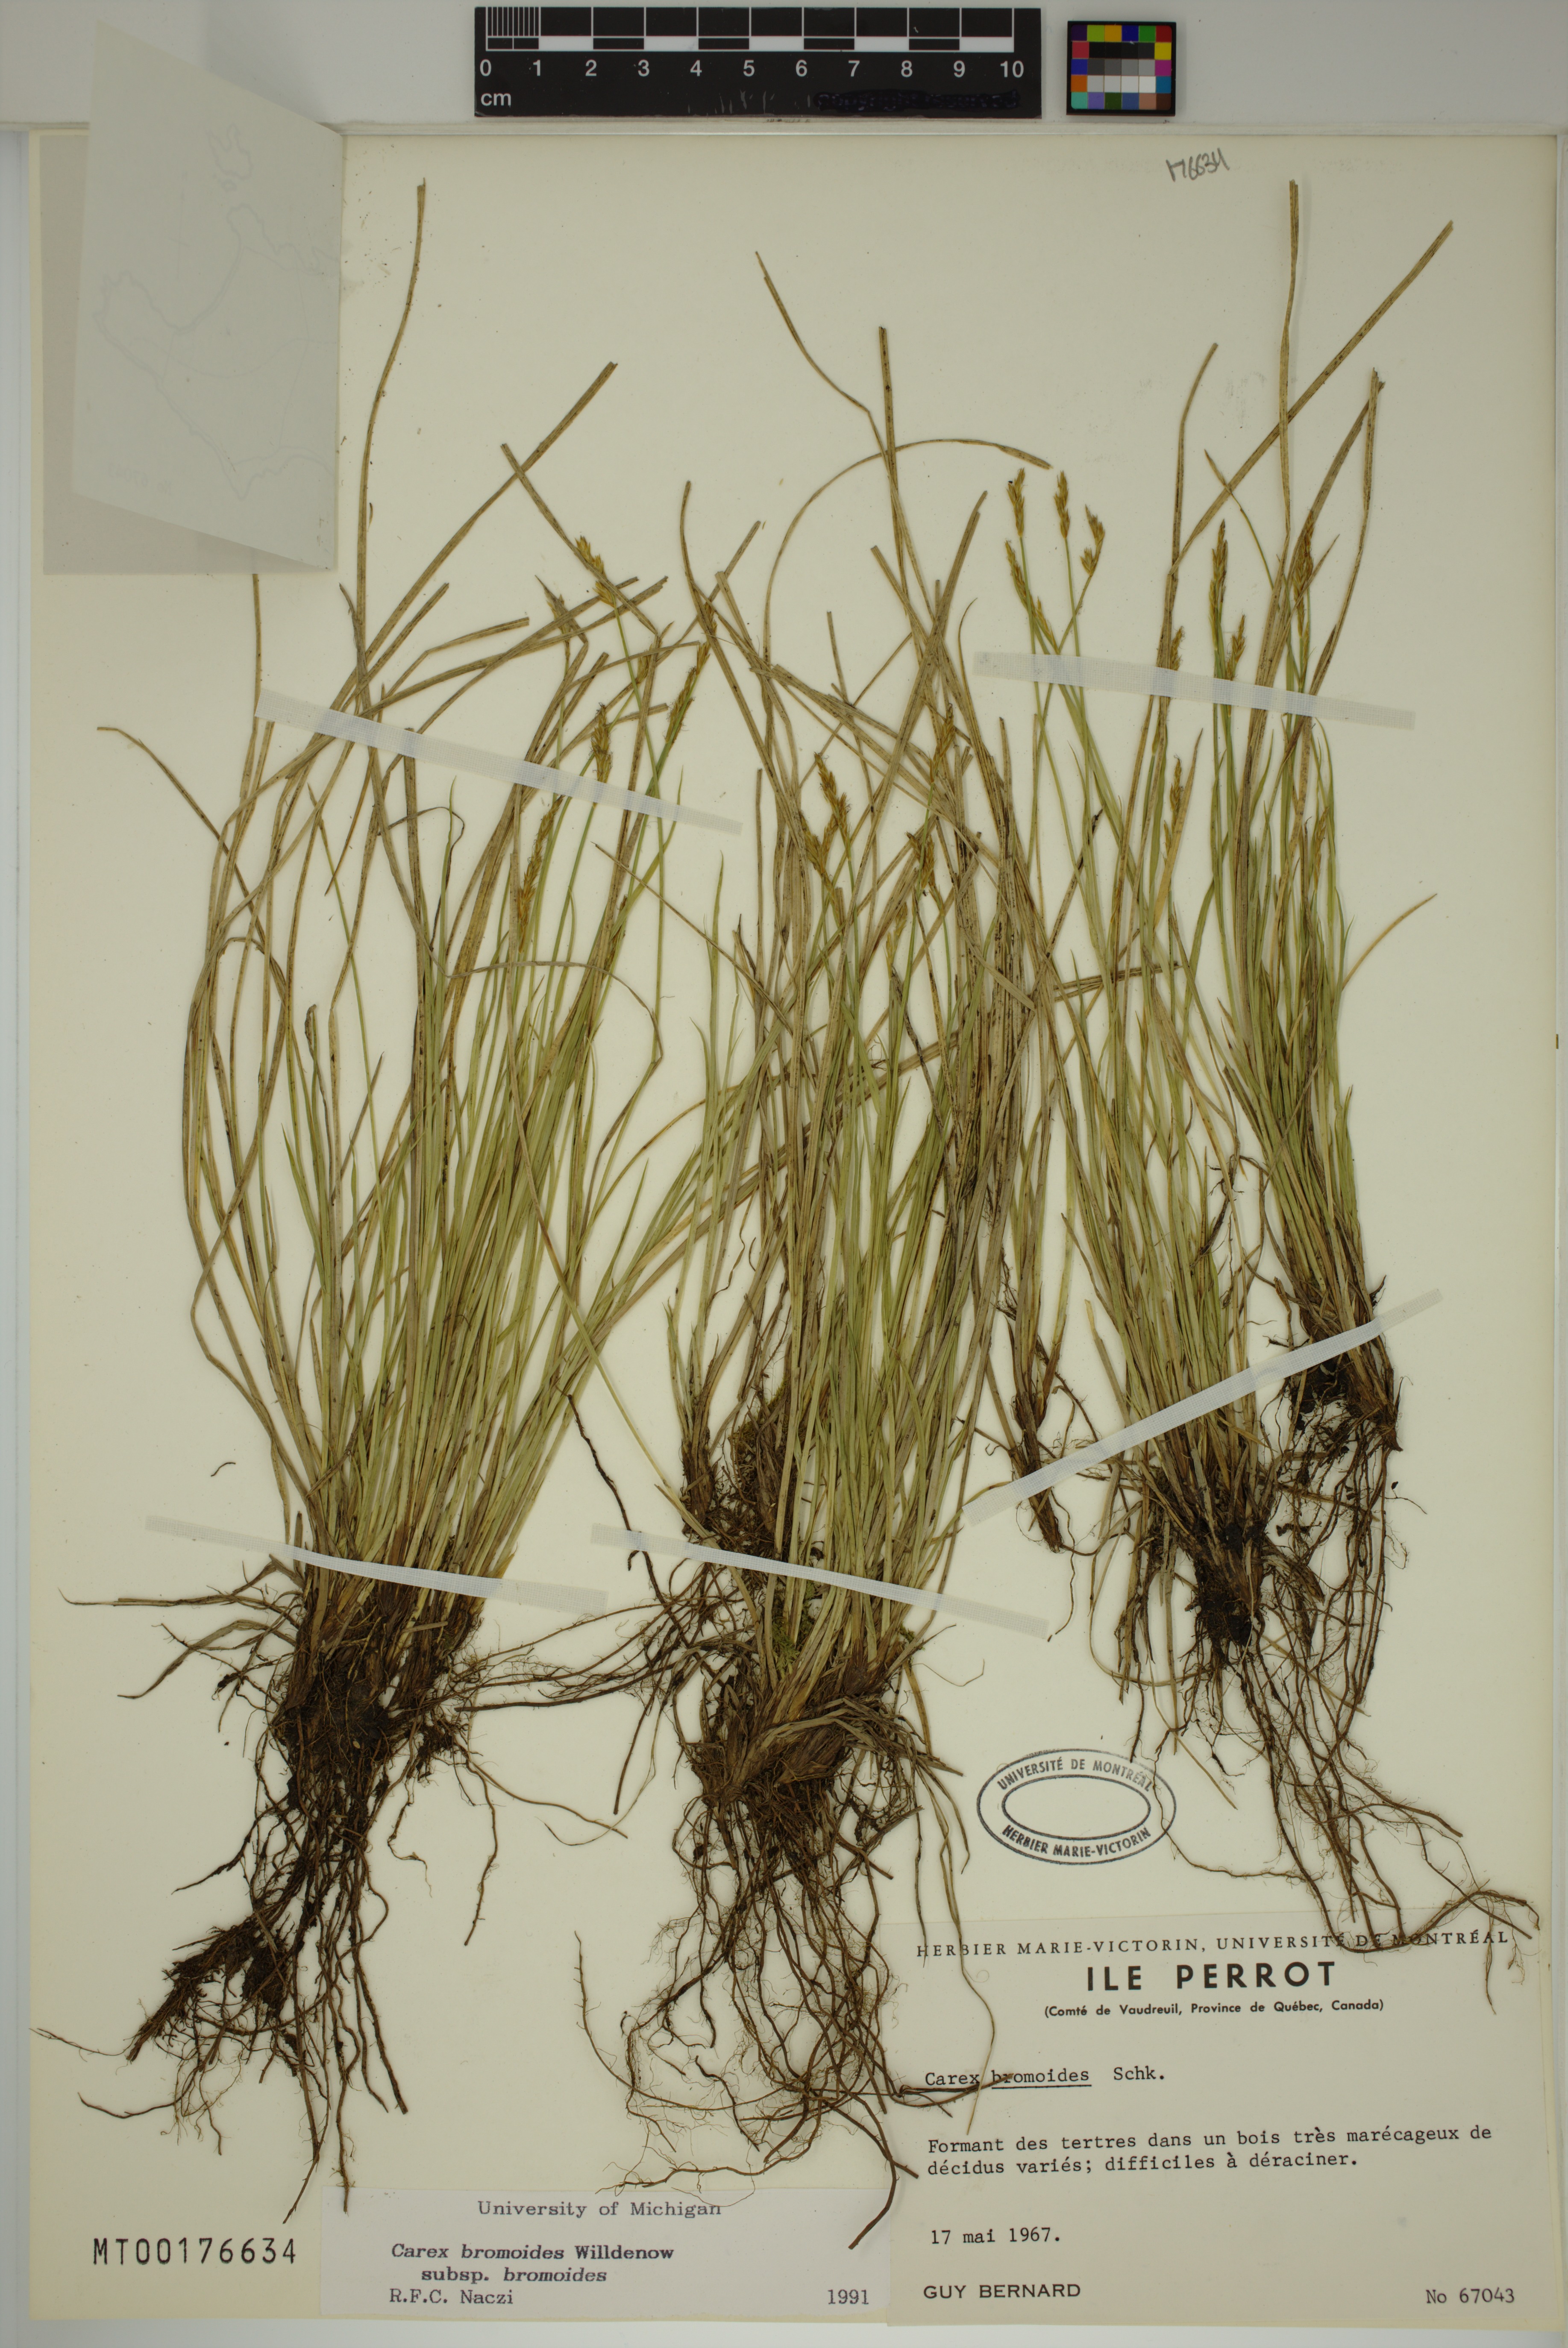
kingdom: Plantae
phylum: Tracheophyta
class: Liliopsida
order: Poales
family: Cyperaceae
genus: Carex
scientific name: Carex bromoides
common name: Brome hummock sedge
